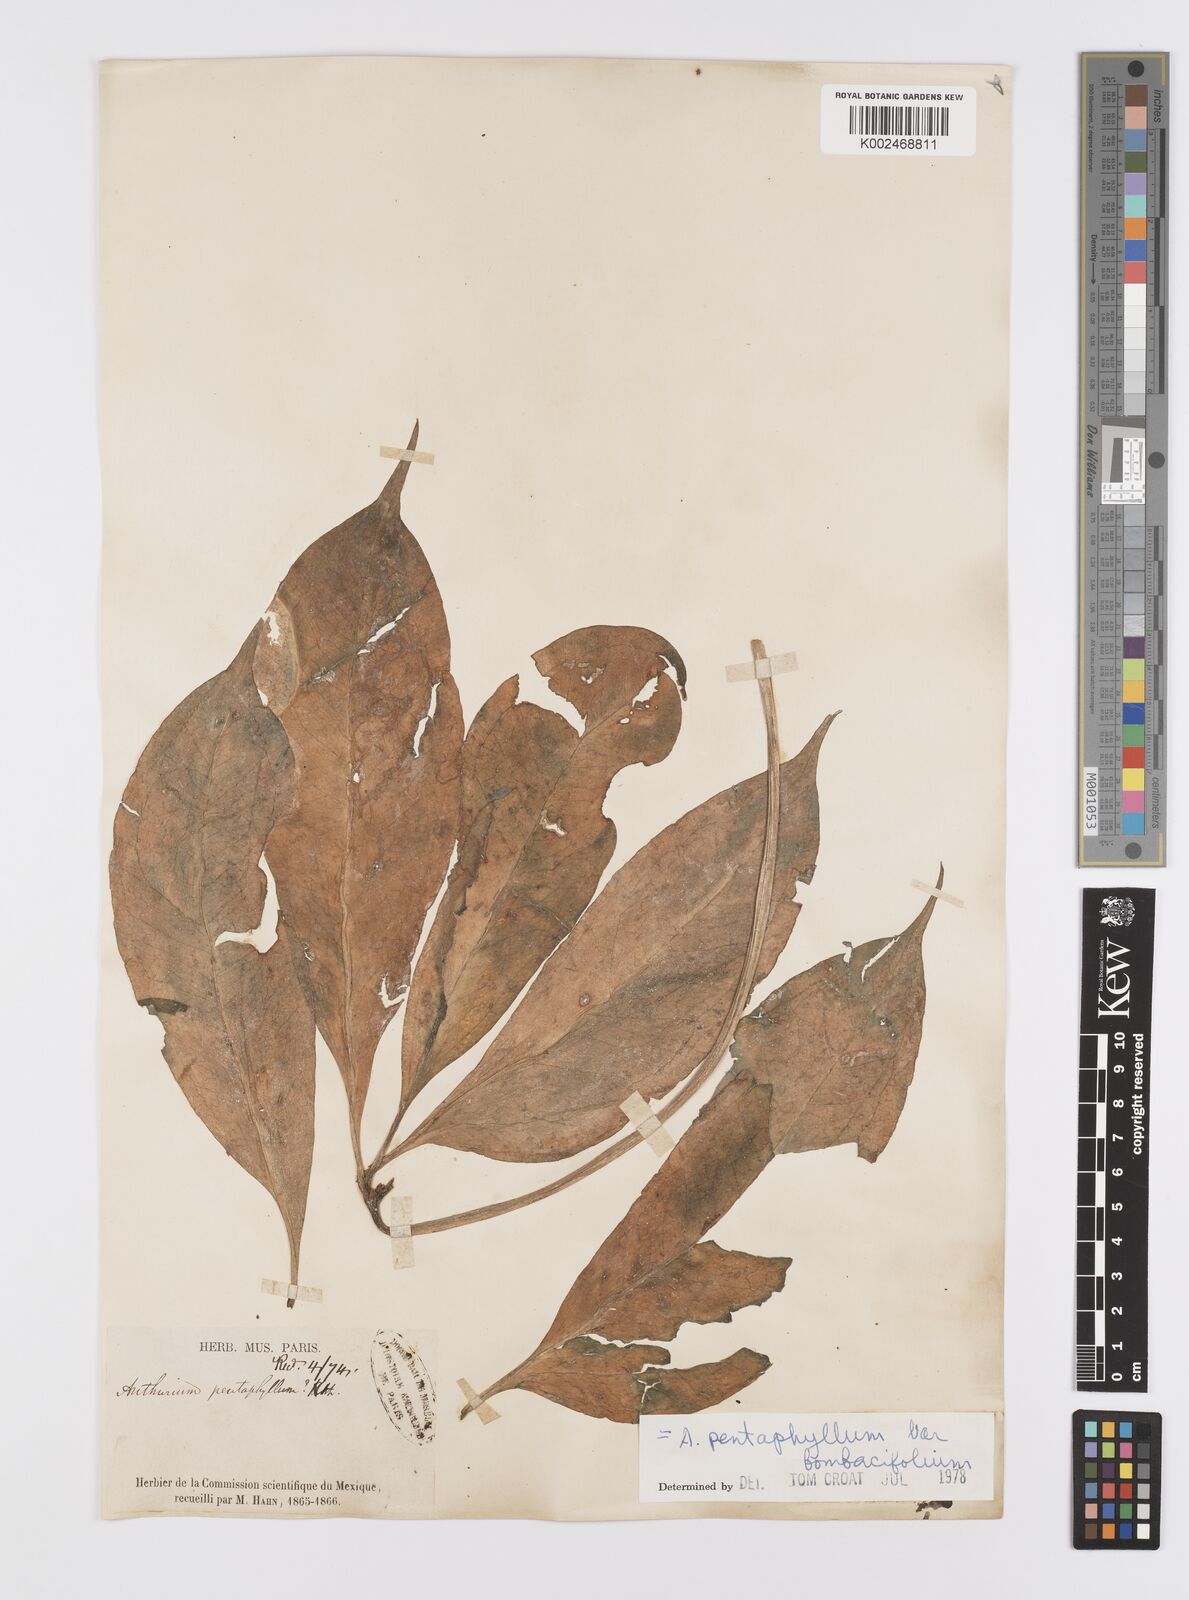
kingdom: Plantae
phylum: Tracheophyta
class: Liliopsida
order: Alismatales
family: Araceae
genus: Anthurium
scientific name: Anthurium pentaphyllum
